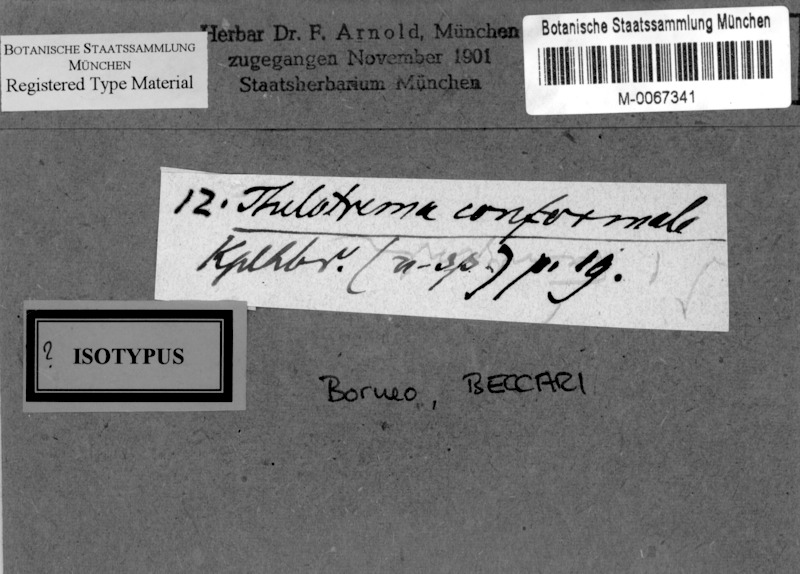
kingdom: Fungi
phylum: Ascomycota
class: Lecanoromycetes
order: Ostropales
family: Graphidaceae
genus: Ocellularia
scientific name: Ocellularia conformalis
